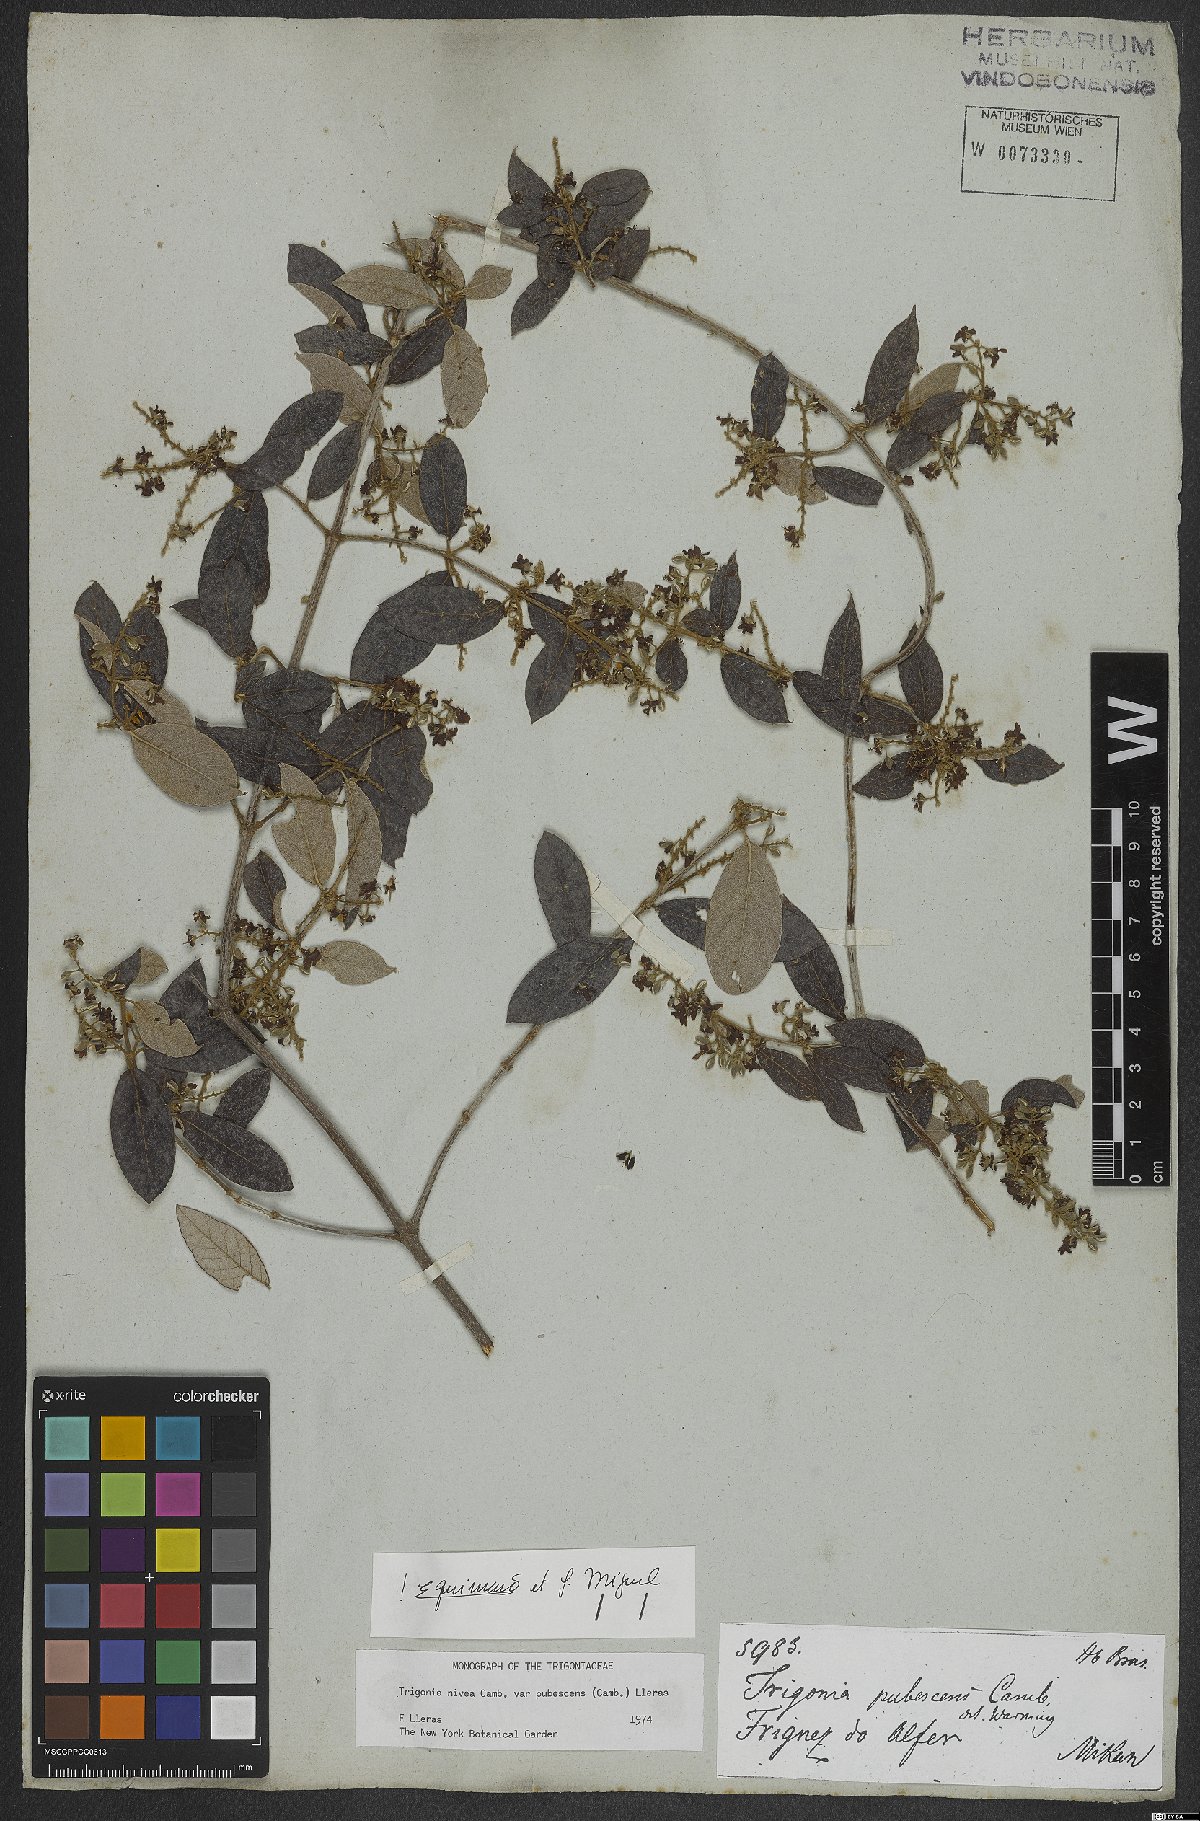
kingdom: Plantae
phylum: Tracheophyta
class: Magnoliopsida
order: Malpighiales
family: Trigoniaceae
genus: Trigonia
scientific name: Trigonia nivea
